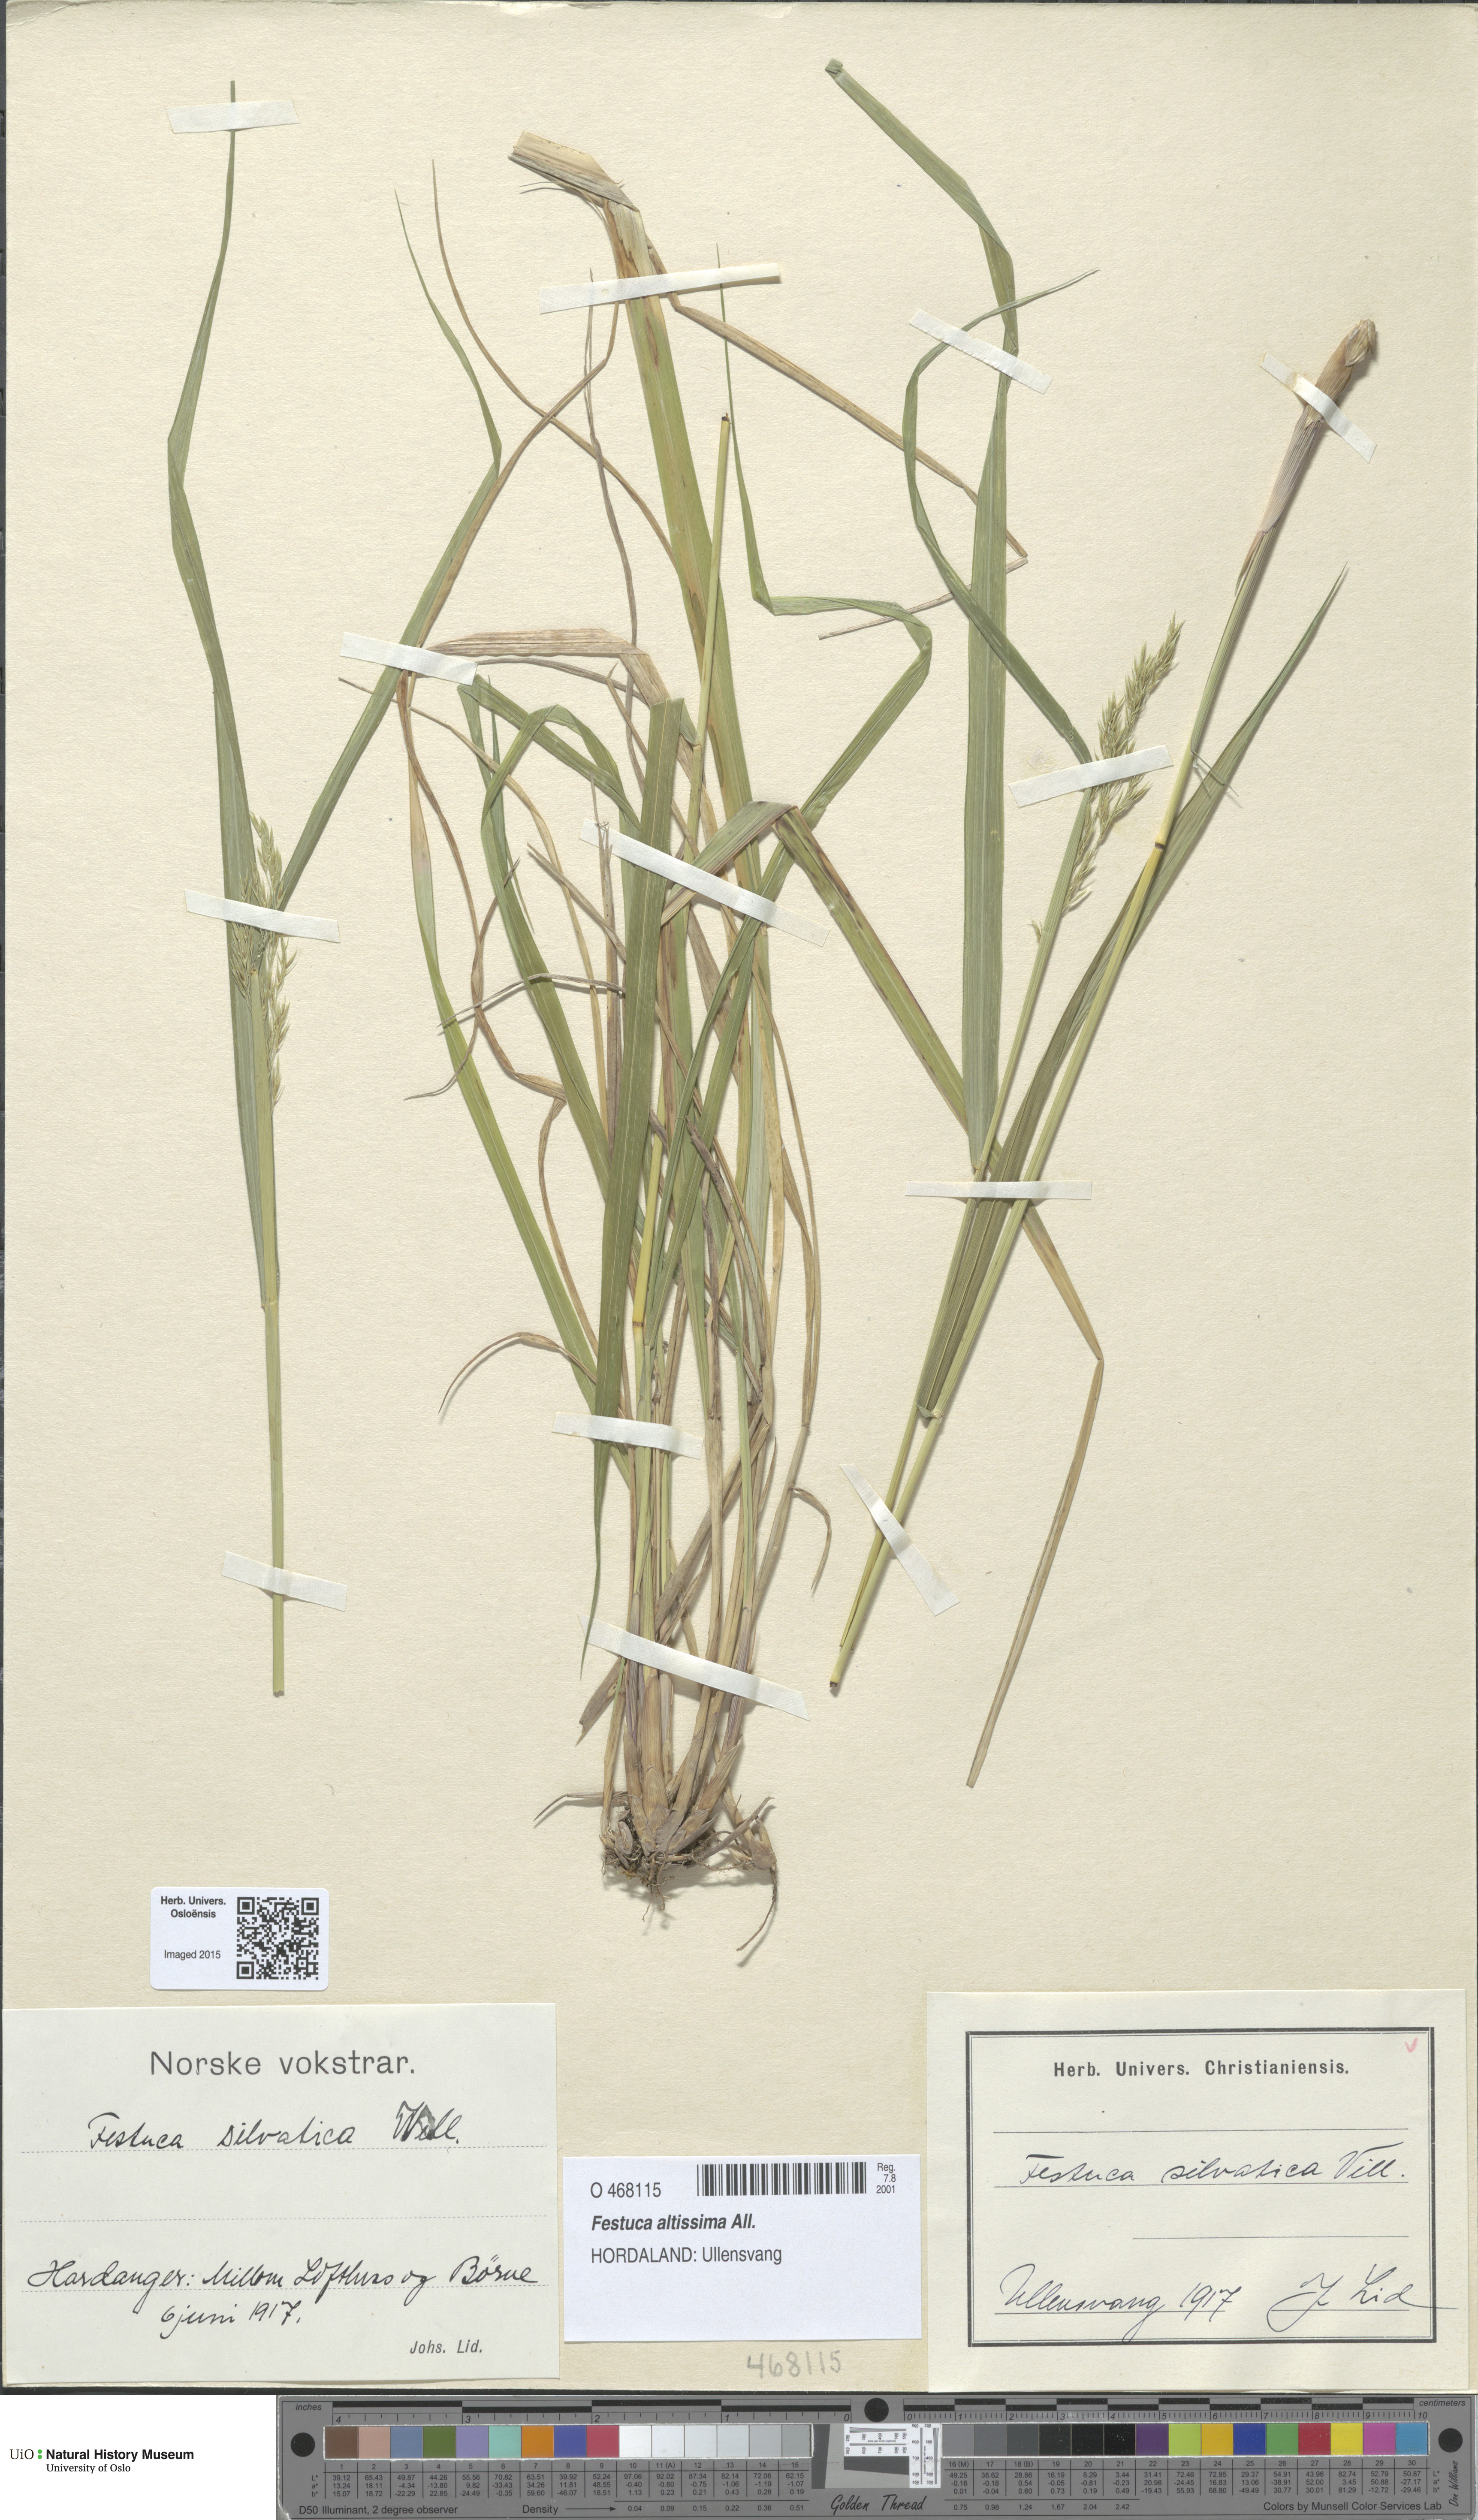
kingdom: Plantae
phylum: Tracheophyta
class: Liliopsida
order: Poales
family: Poaceae
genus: Festuca
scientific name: Festuca altissima
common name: Wood fescue
